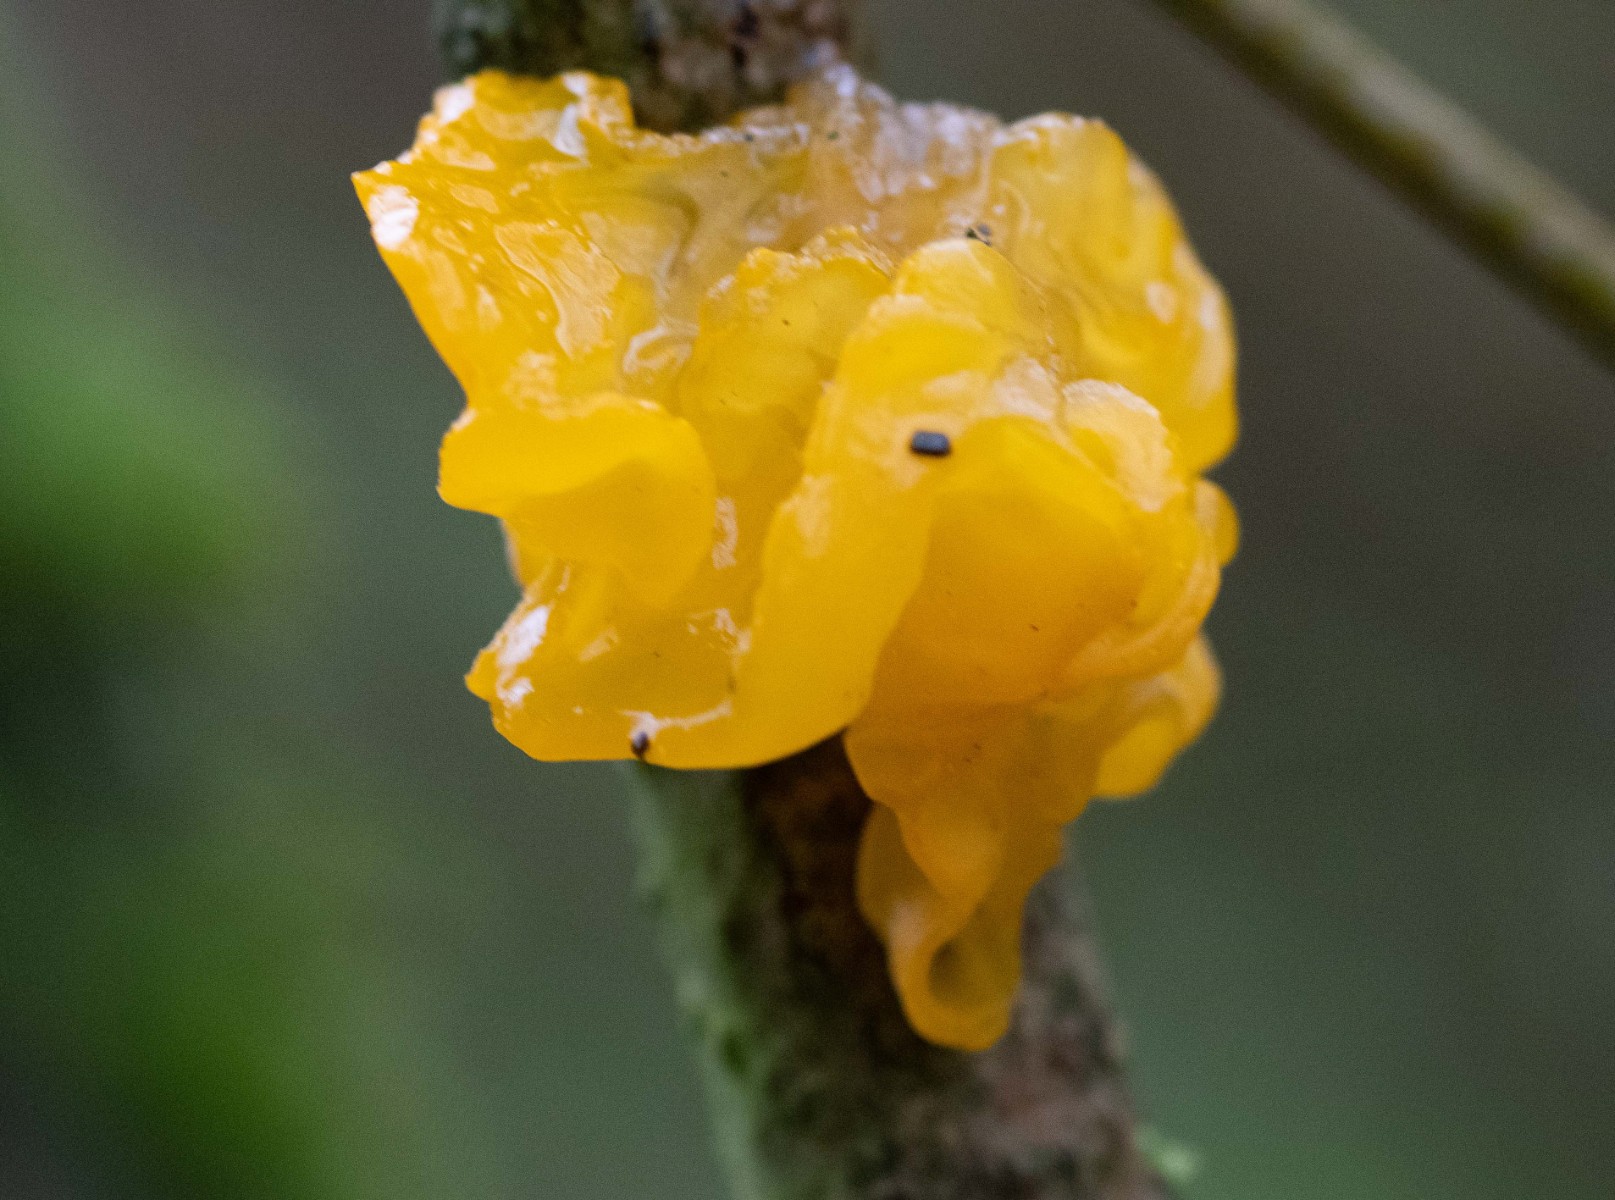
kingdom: Fungi
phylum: Basidiomycota
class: Tremellomycetes
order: Tremellales
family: Tremellaceae
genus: Tremella
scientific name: Tremella mesenterica
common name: gul bævresvamp
